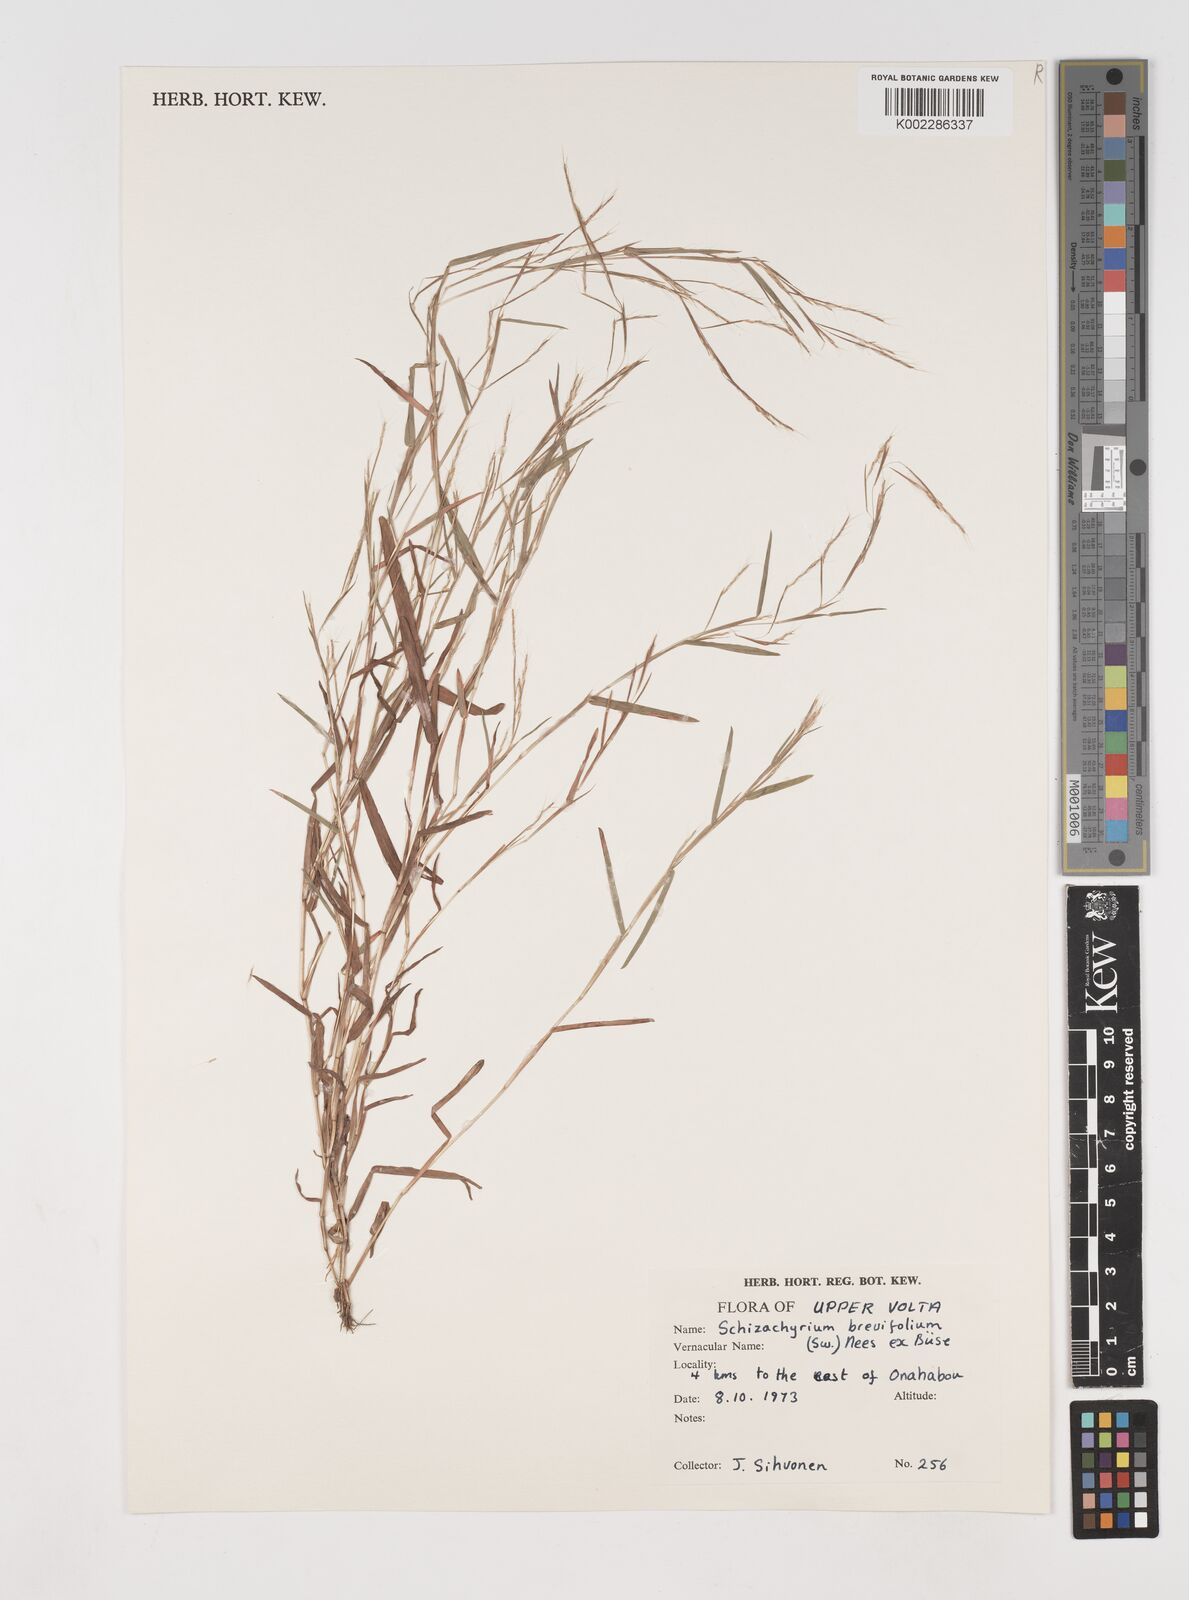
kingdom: Plantae
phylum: Tracheophyta
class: Liliopsida
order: Poales
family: Poaceae
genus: Schizachyrium
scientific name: Schizachyrium brevifolium
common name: Serillo dulce
